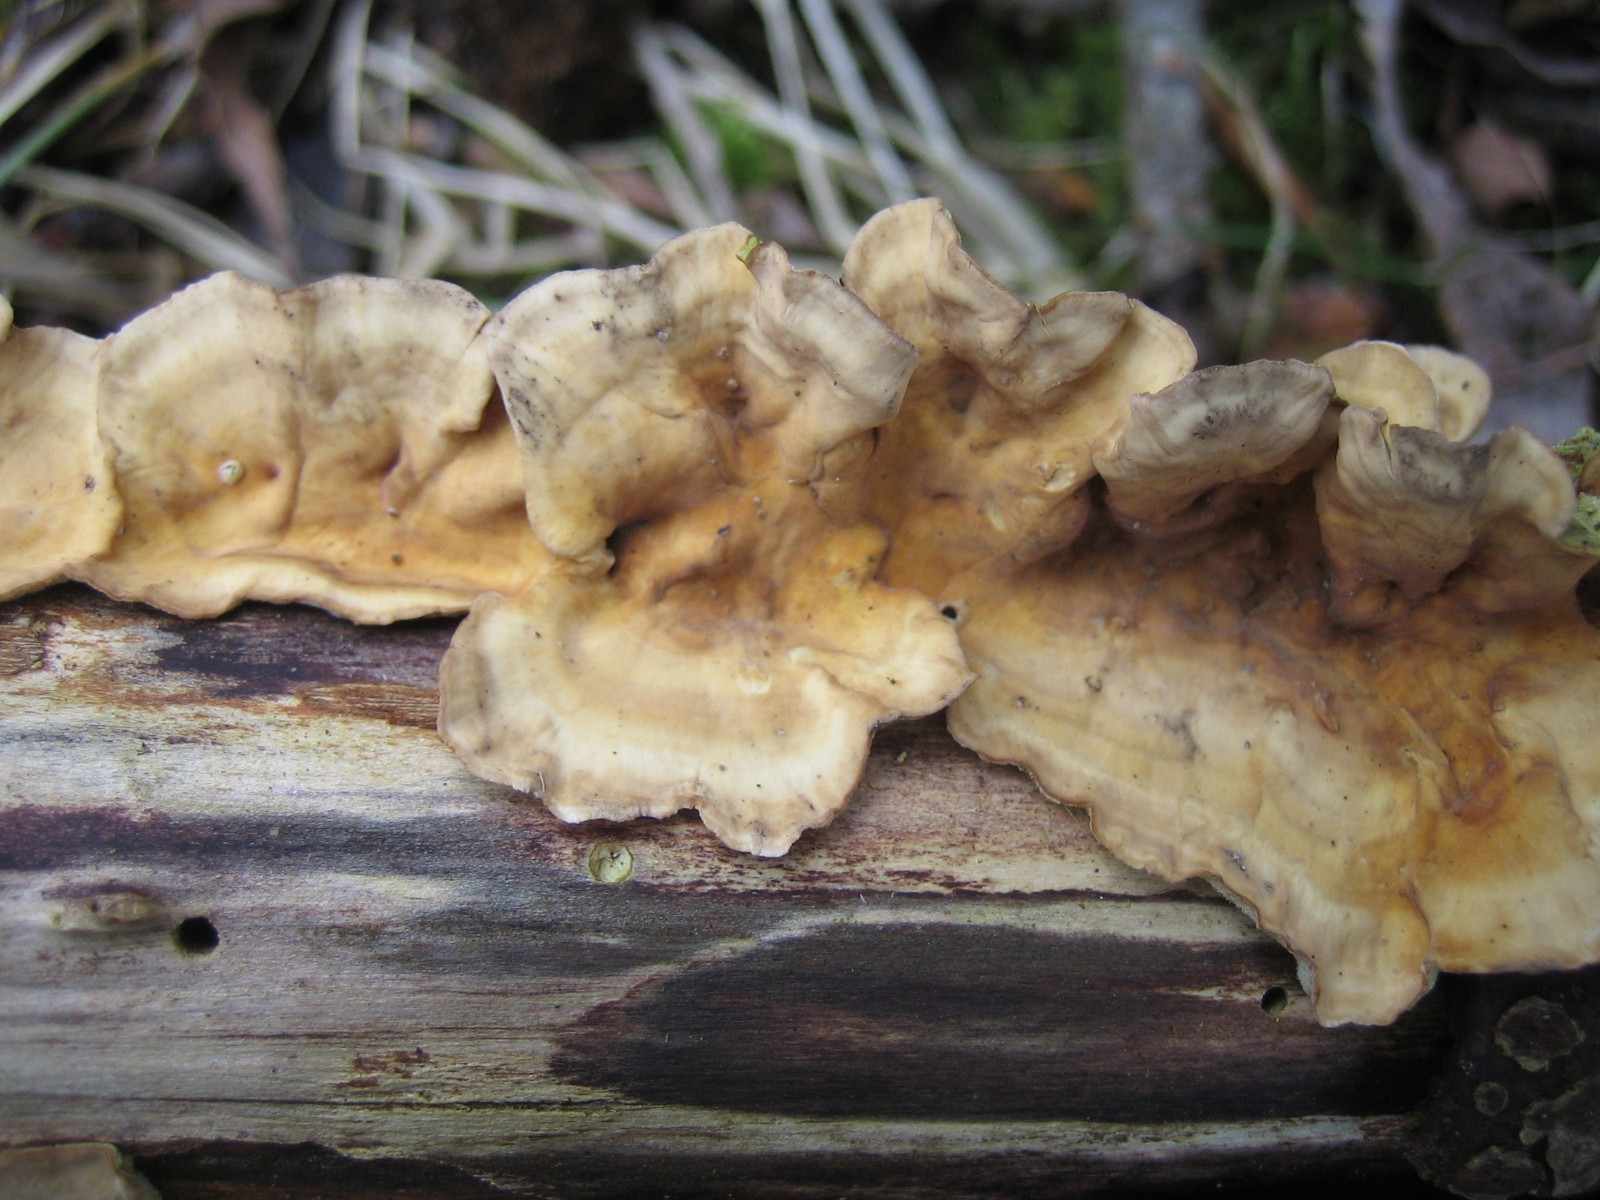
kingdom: Fungi
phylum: Basidiomycota
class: Agaricomycetes
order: Russulales
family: Stereaceae
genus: Stereum
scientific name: Stereum hirsutum
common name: håret lædersvamp
